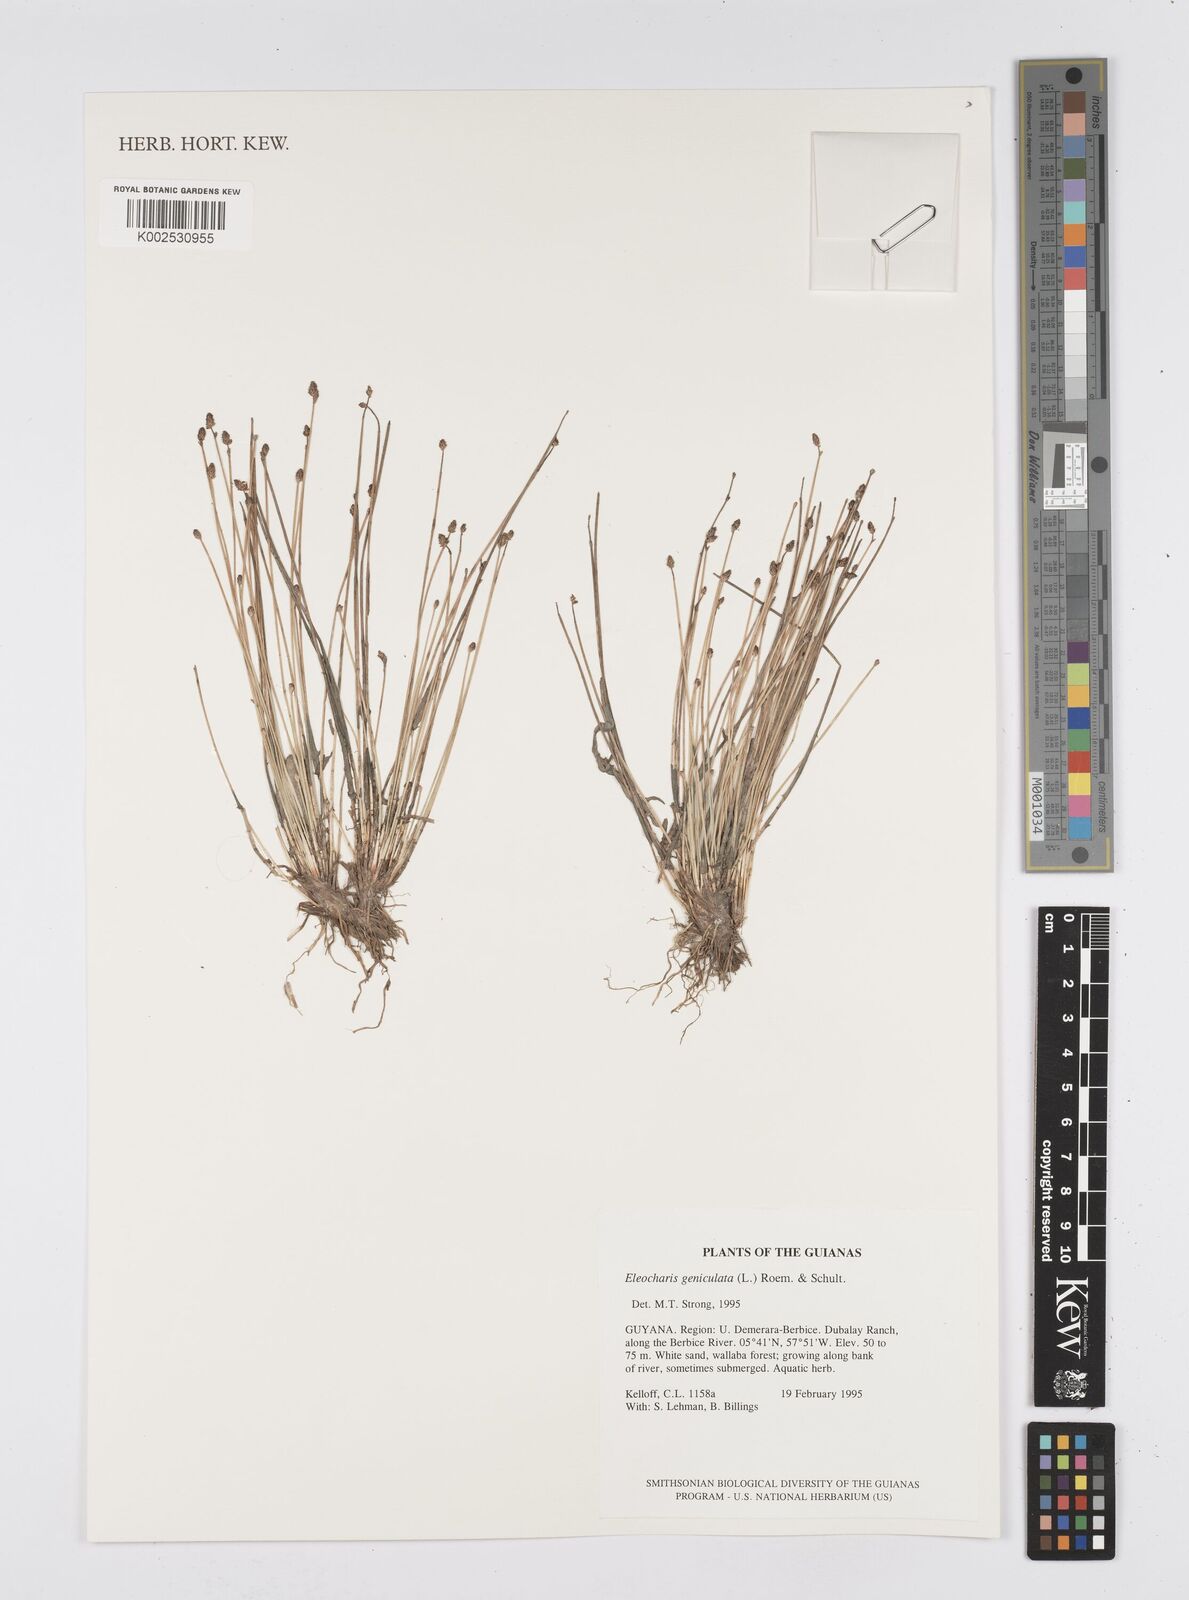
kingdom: Plantae
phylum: Tracheophyta
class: Liliopsida
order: Poales
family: Cyperaceae
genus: Eleocharis
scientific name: Eleocharis geniculata
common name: Canada spikesedge
